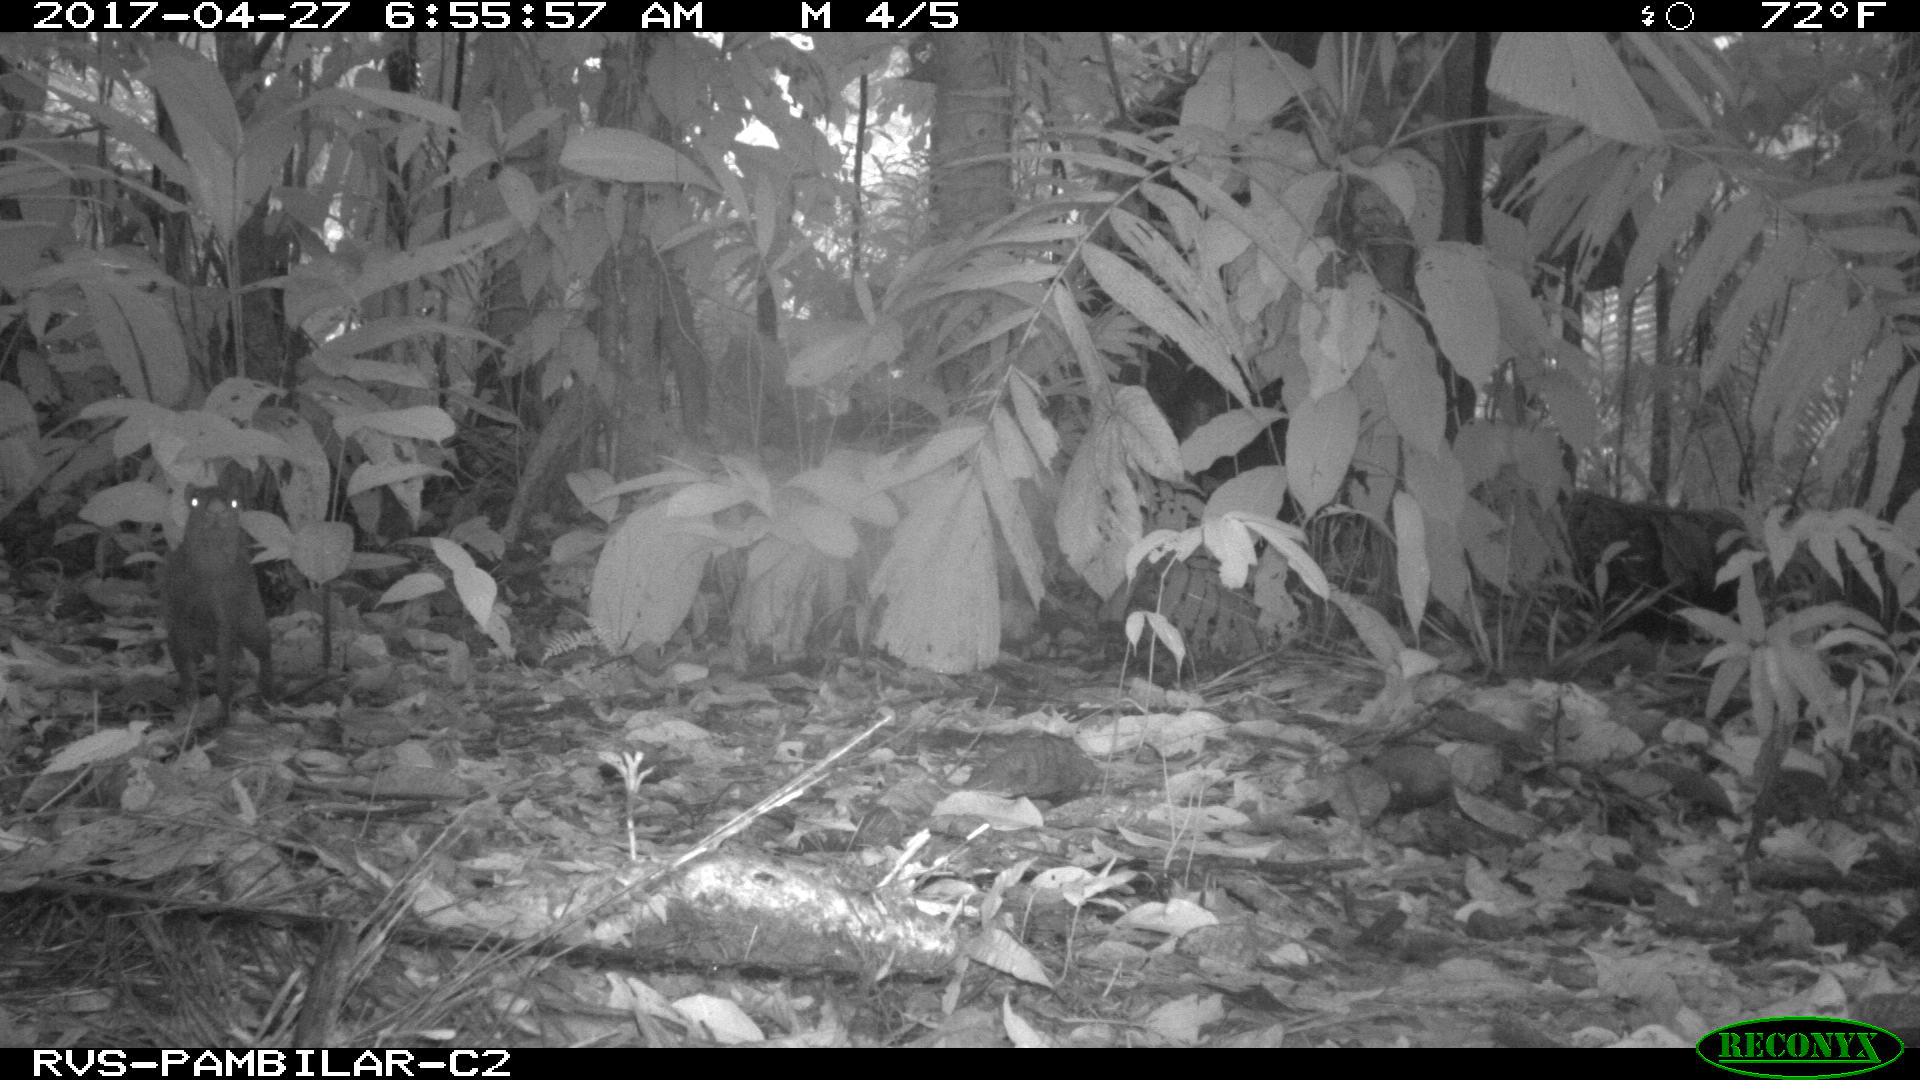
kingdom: Animalia
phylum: Chordata
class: Mammalia
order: Rodentia
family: Dasyproctidae
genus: Dasyprocta
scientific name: Dasyprocta punctata
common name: Central american agouti
